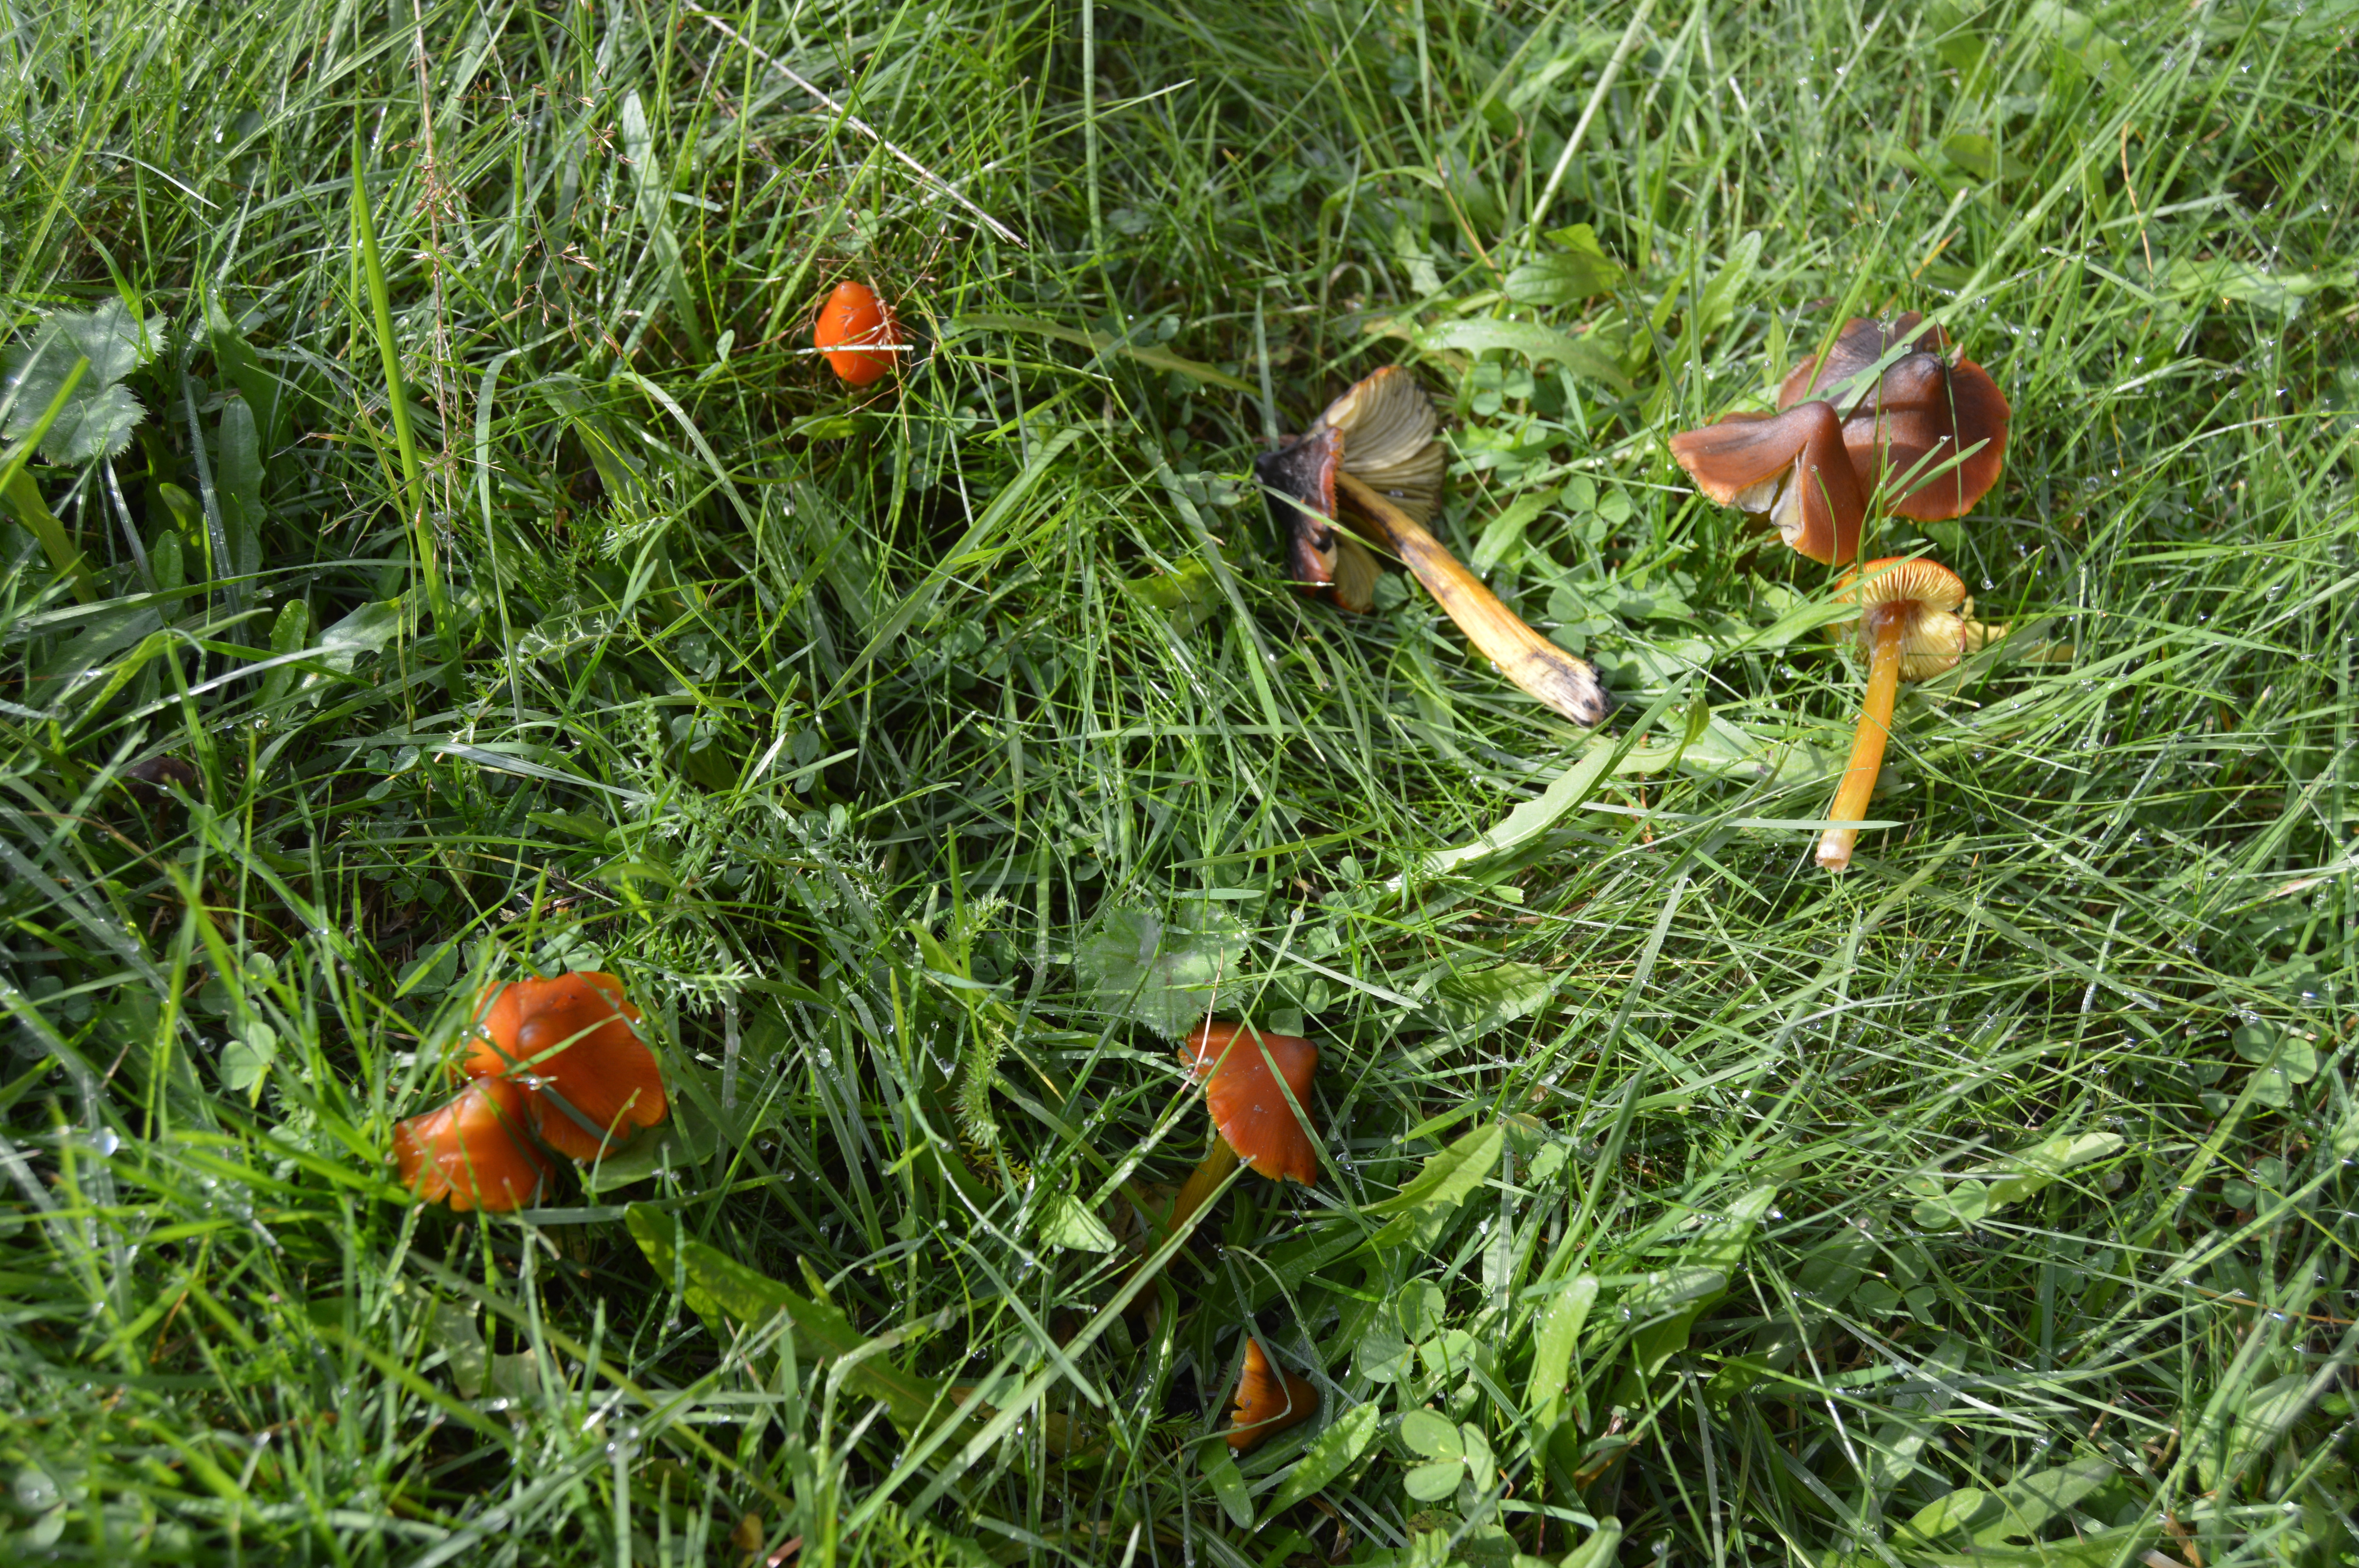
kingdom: Fungi
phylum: Basidiomycota
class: Agaricomycetes
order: Agaricales
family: Hygrophoraceae
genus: Hygrocybe
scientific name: Hygrocybe conica
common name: Blackening wax-cap
